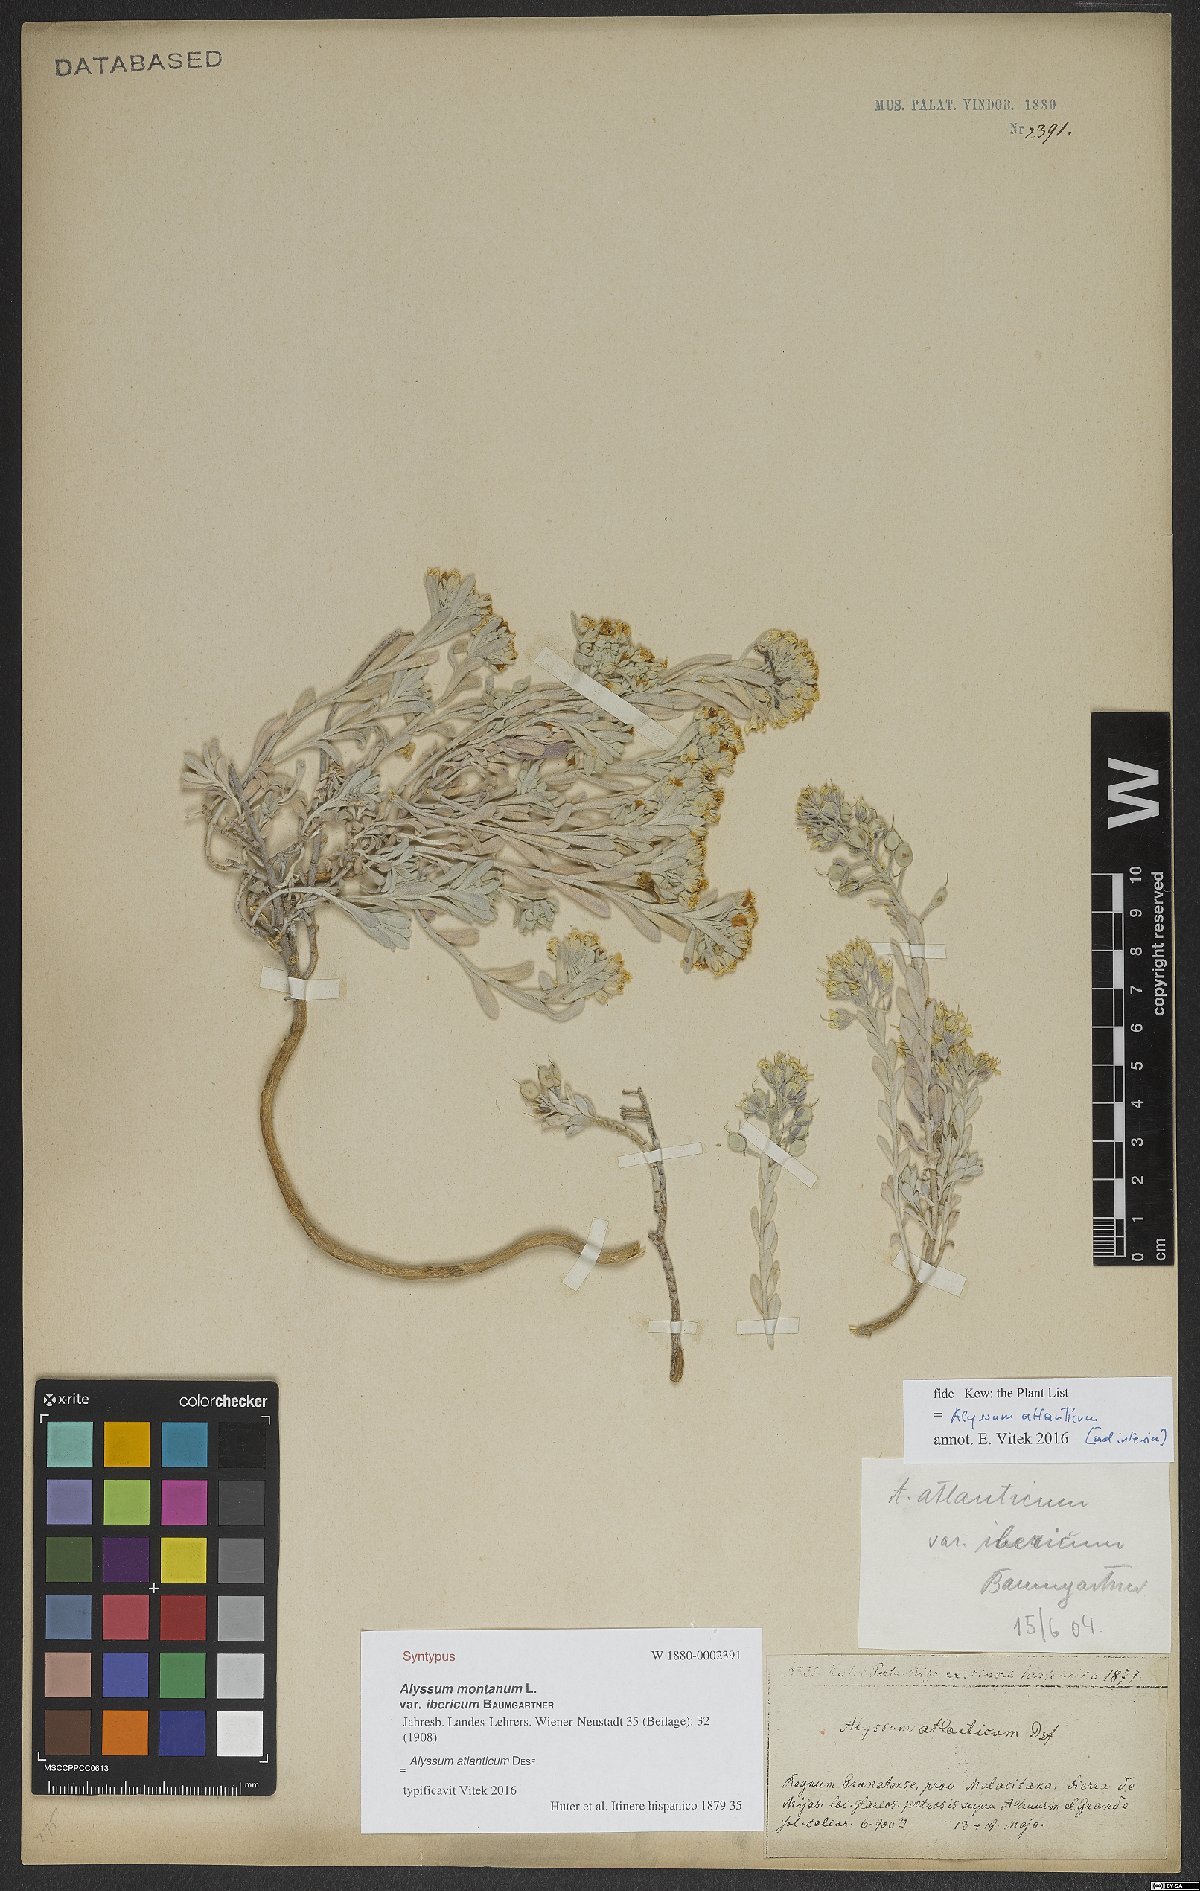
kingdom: Plantae
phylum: Tracheophyta
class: Magnoliopsida
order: Brassicales
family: Brassicaceae
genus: Alyssum
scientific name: Alyssum atlanticum
